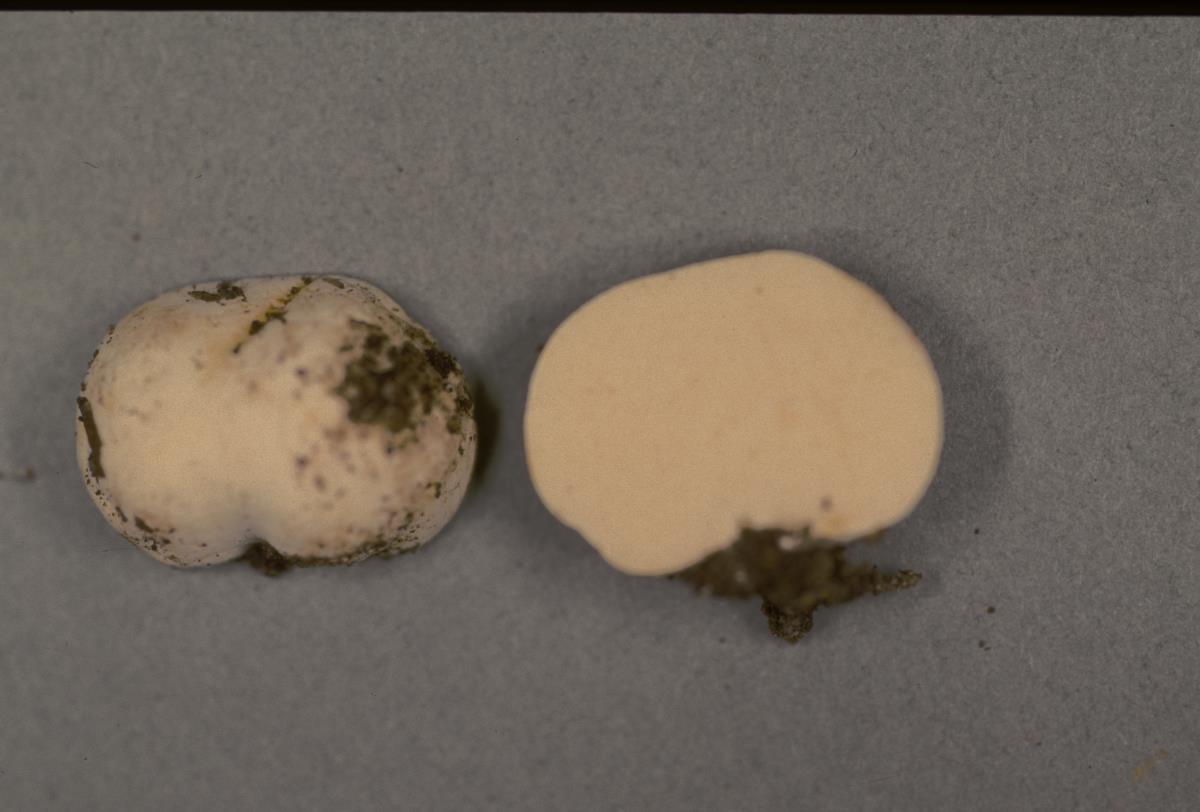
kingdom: Fungi
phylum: Basidiomycota
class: Agaricomycetes
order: Russulales
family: Russulaceae
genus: Russula
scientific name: Russula osphranticarpa
